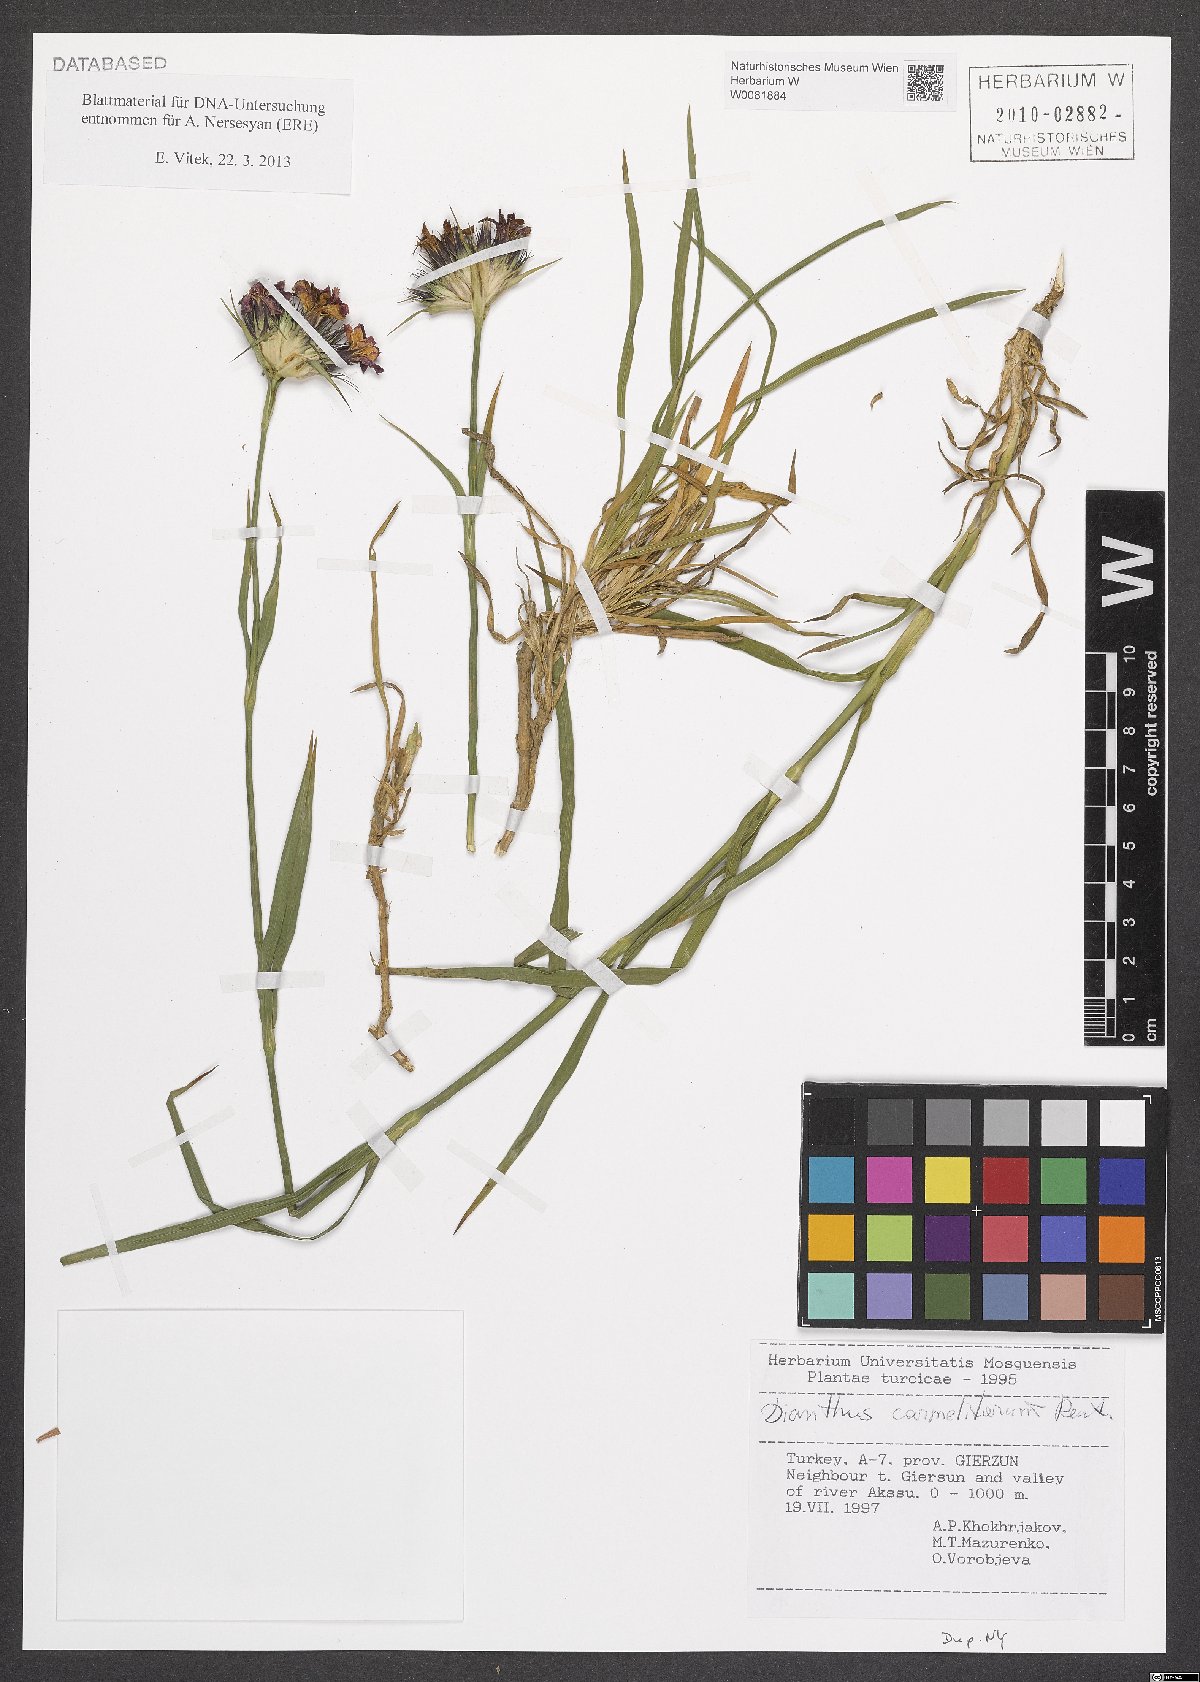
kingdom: Plantae
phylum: Tracheophyta
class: Magnoliopsida
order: Caryophyllales
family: Caryophyllaceae
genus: Dianthus
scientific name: Dianthus carmelitarum
